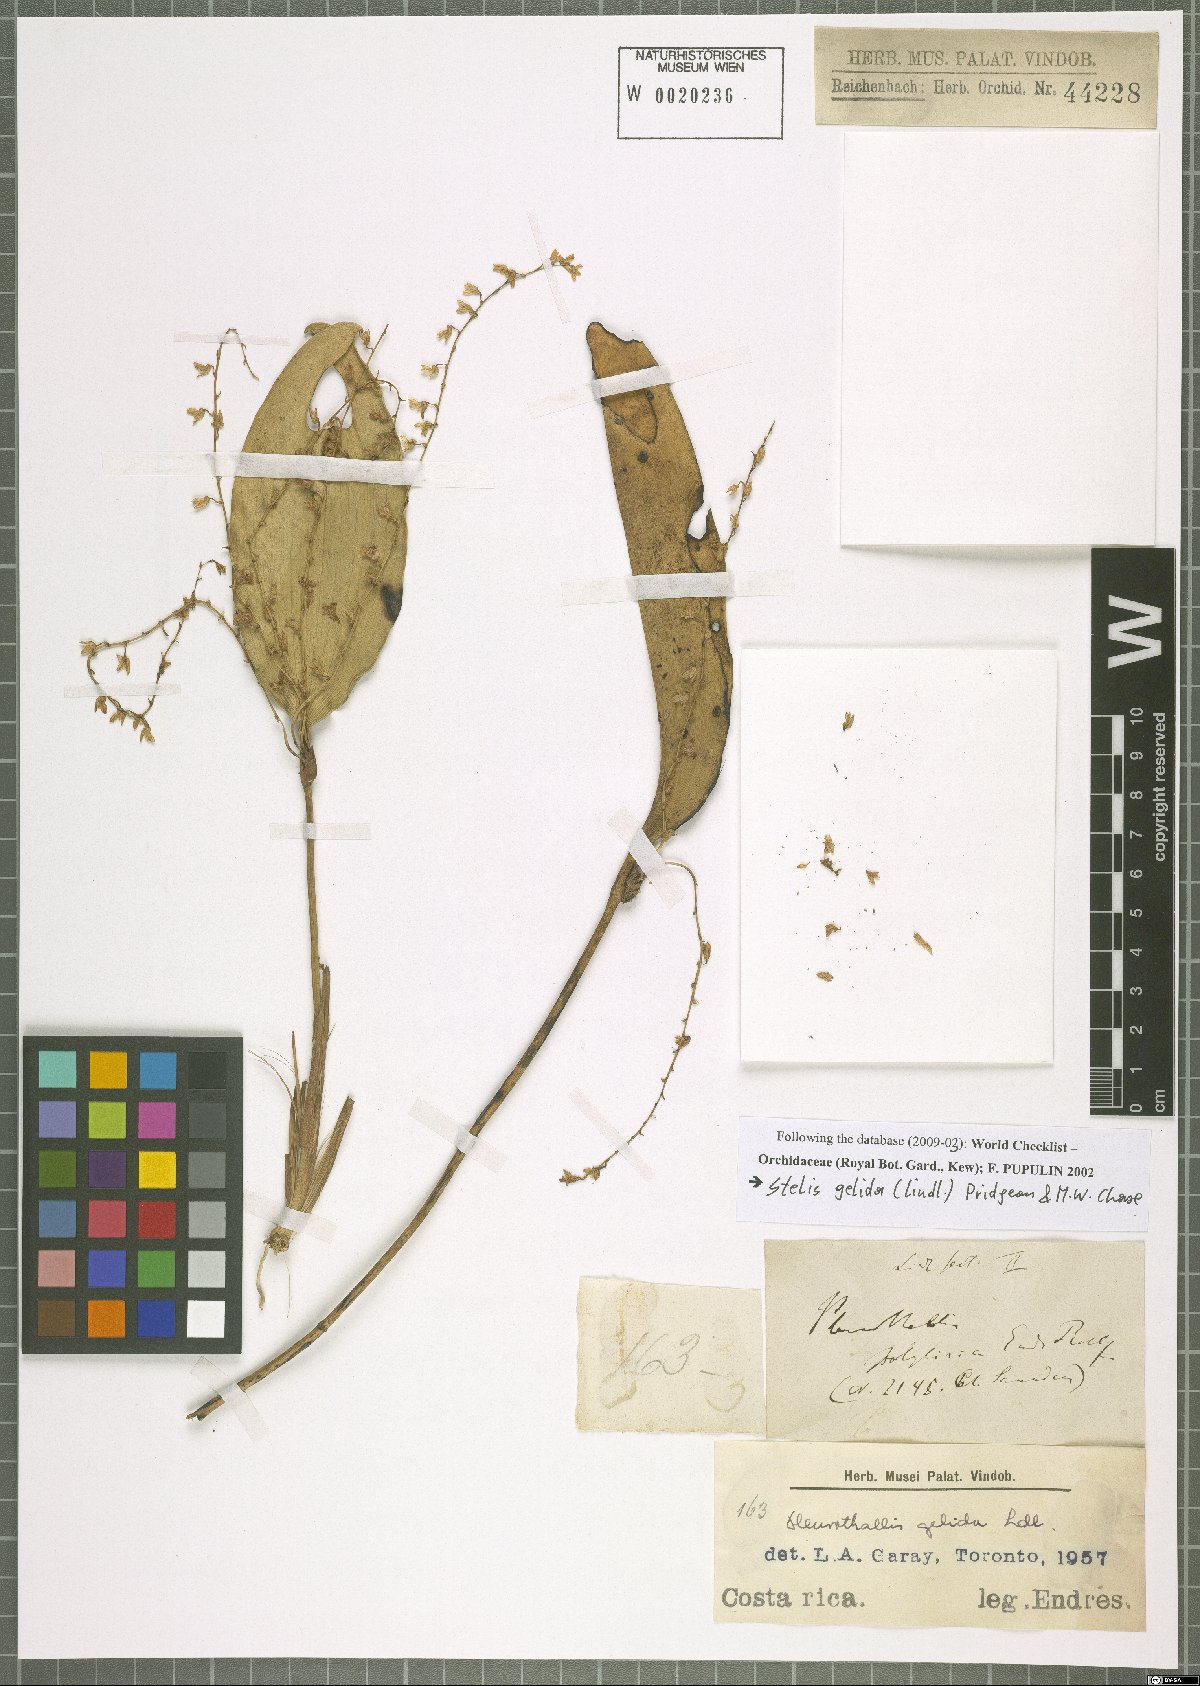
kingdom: Plantae
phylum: Tracheophyta
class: Liliopsida
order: Asparagales
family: Orchidaceae
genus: Stelis
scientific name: Stelis gelida
